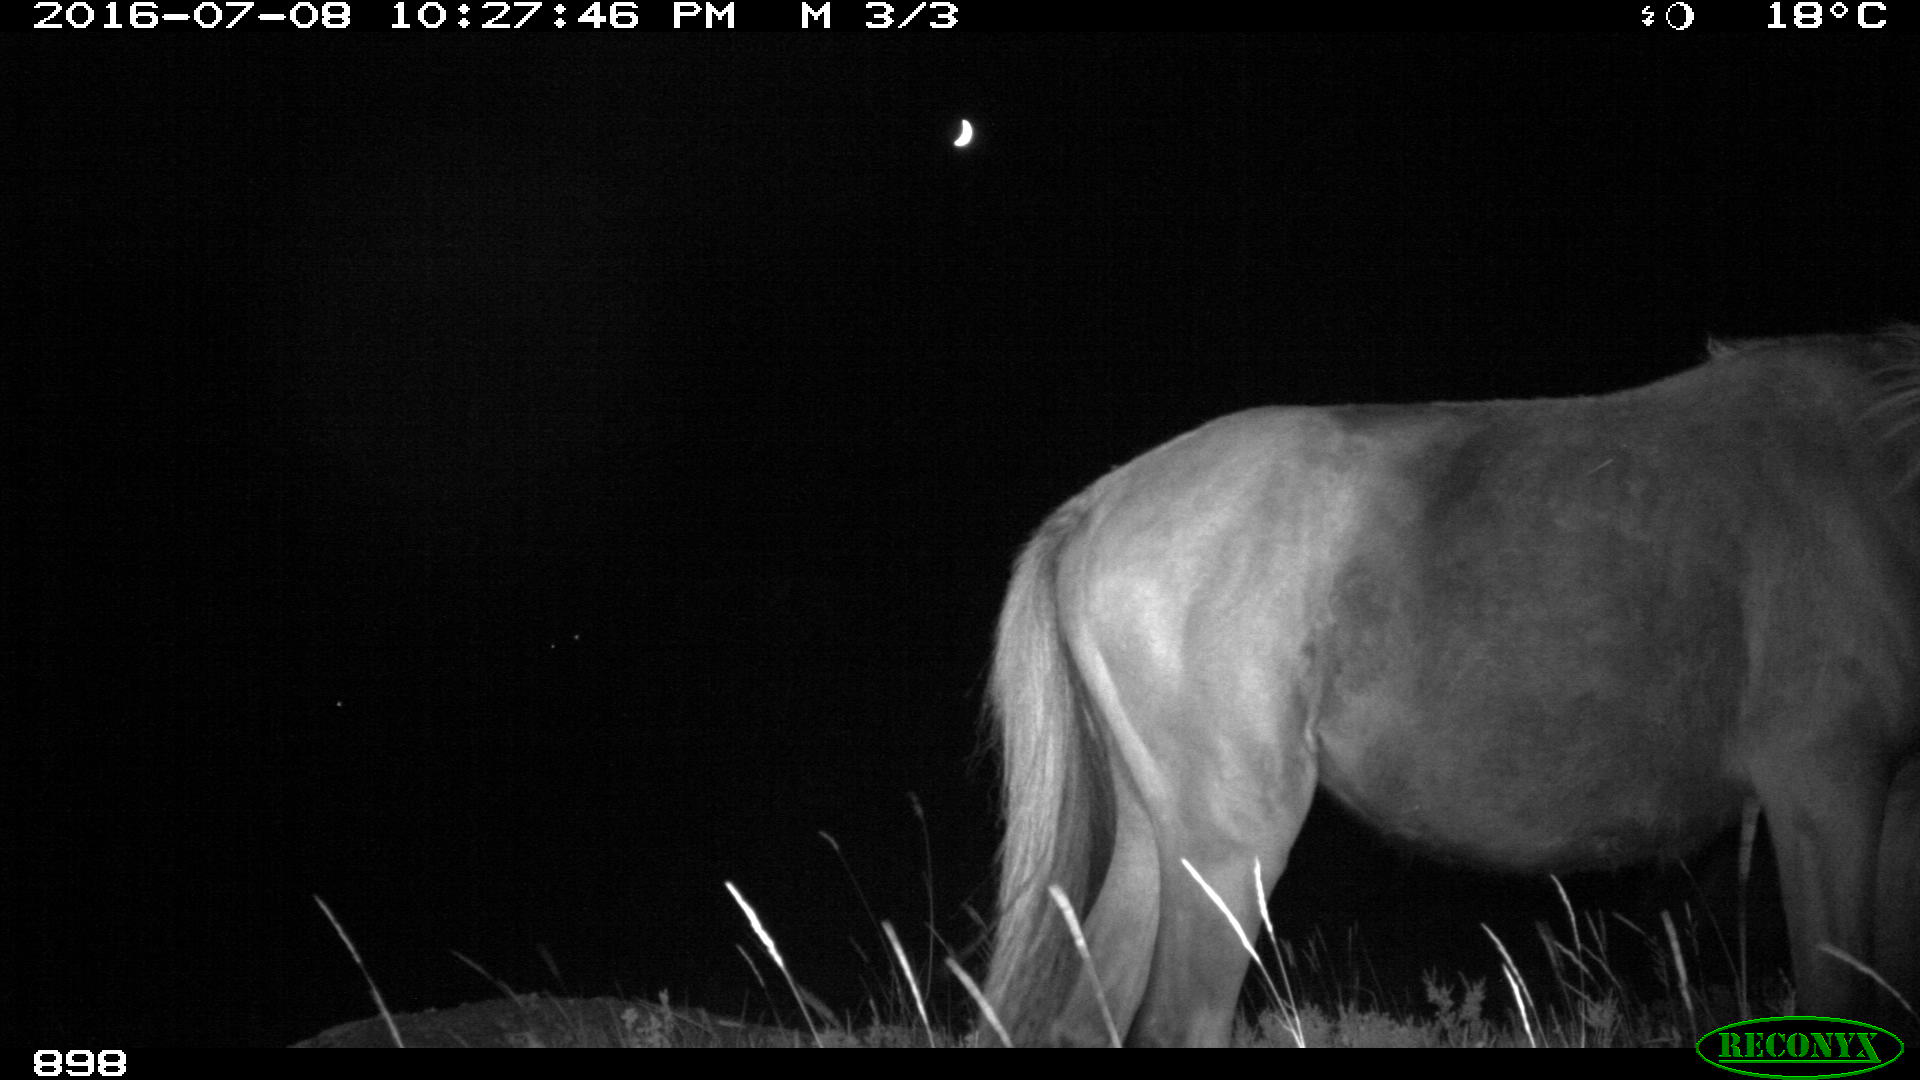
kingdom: Animalia
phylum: Chordata
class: Mammalia
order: Perissodactyla
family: Equidae
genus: Equus
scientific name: Equus caballus
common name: Horse
